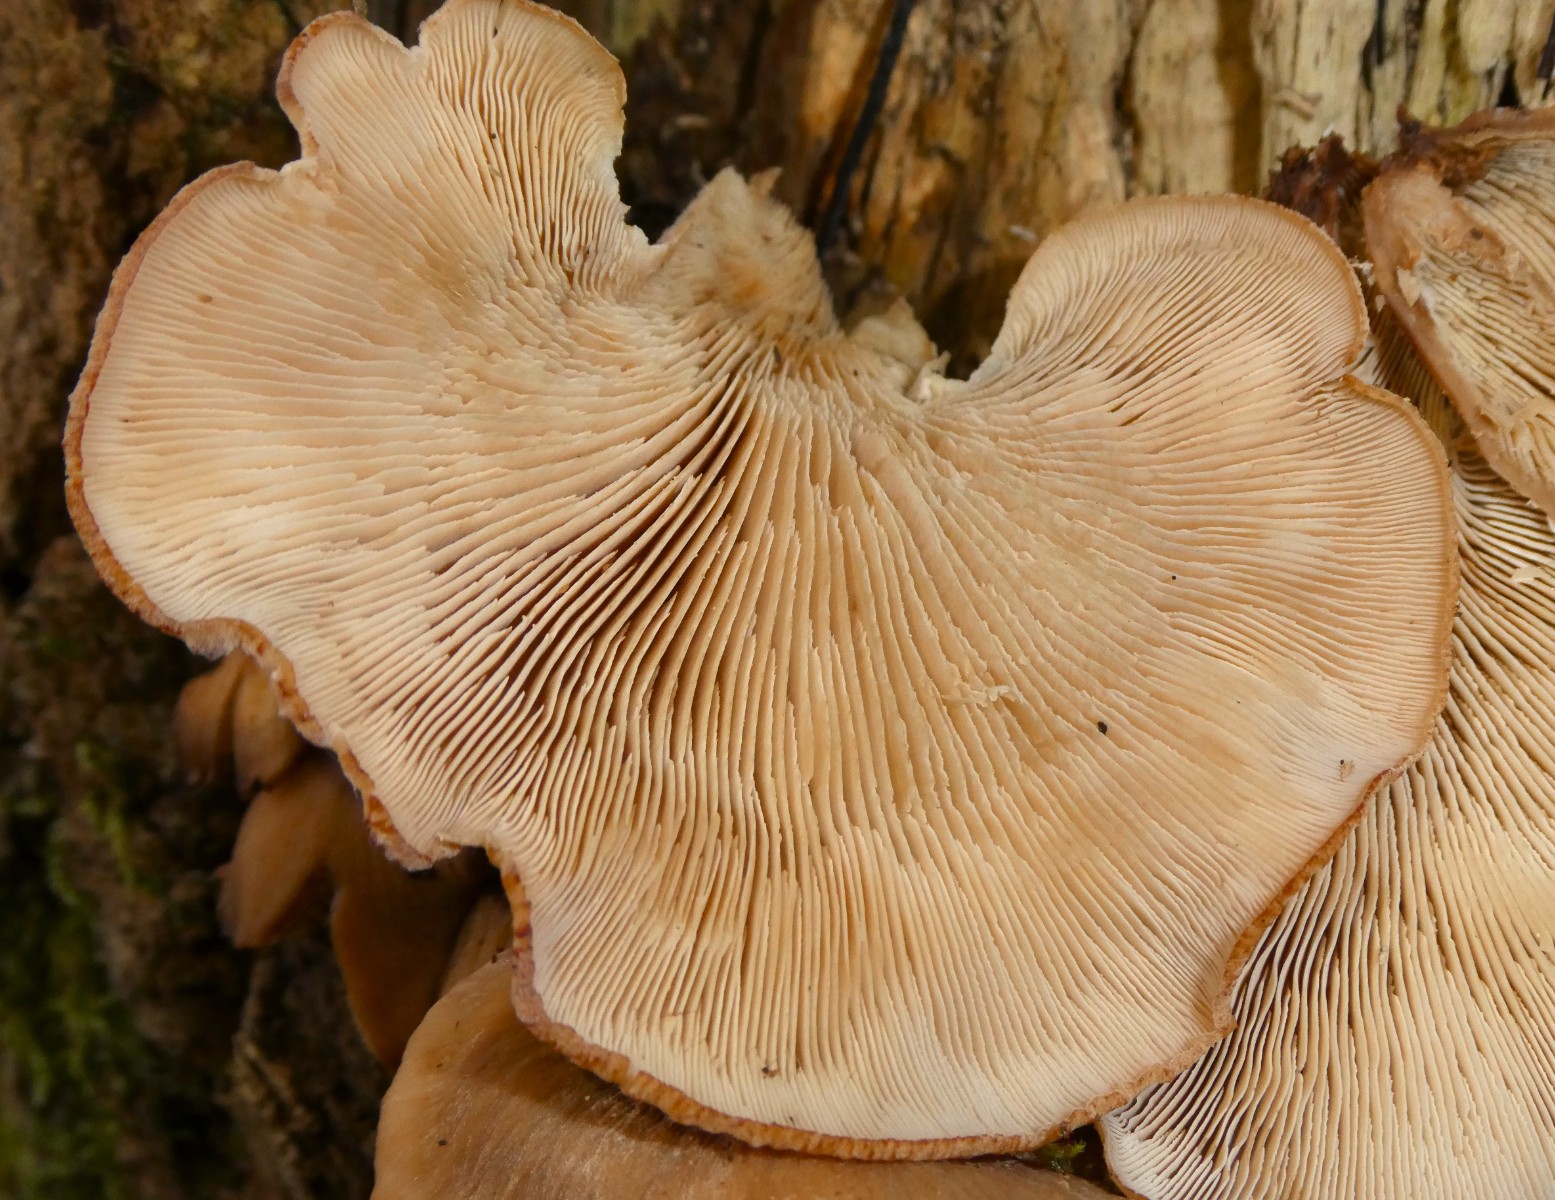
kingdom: Fungi
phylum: Basidiomycota
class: Agaricomycetes
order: Russulales
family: Auriscalpiaceae
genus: Lentinellus
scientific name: Lentinellus ursinus
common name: børstehåret savbladhat
